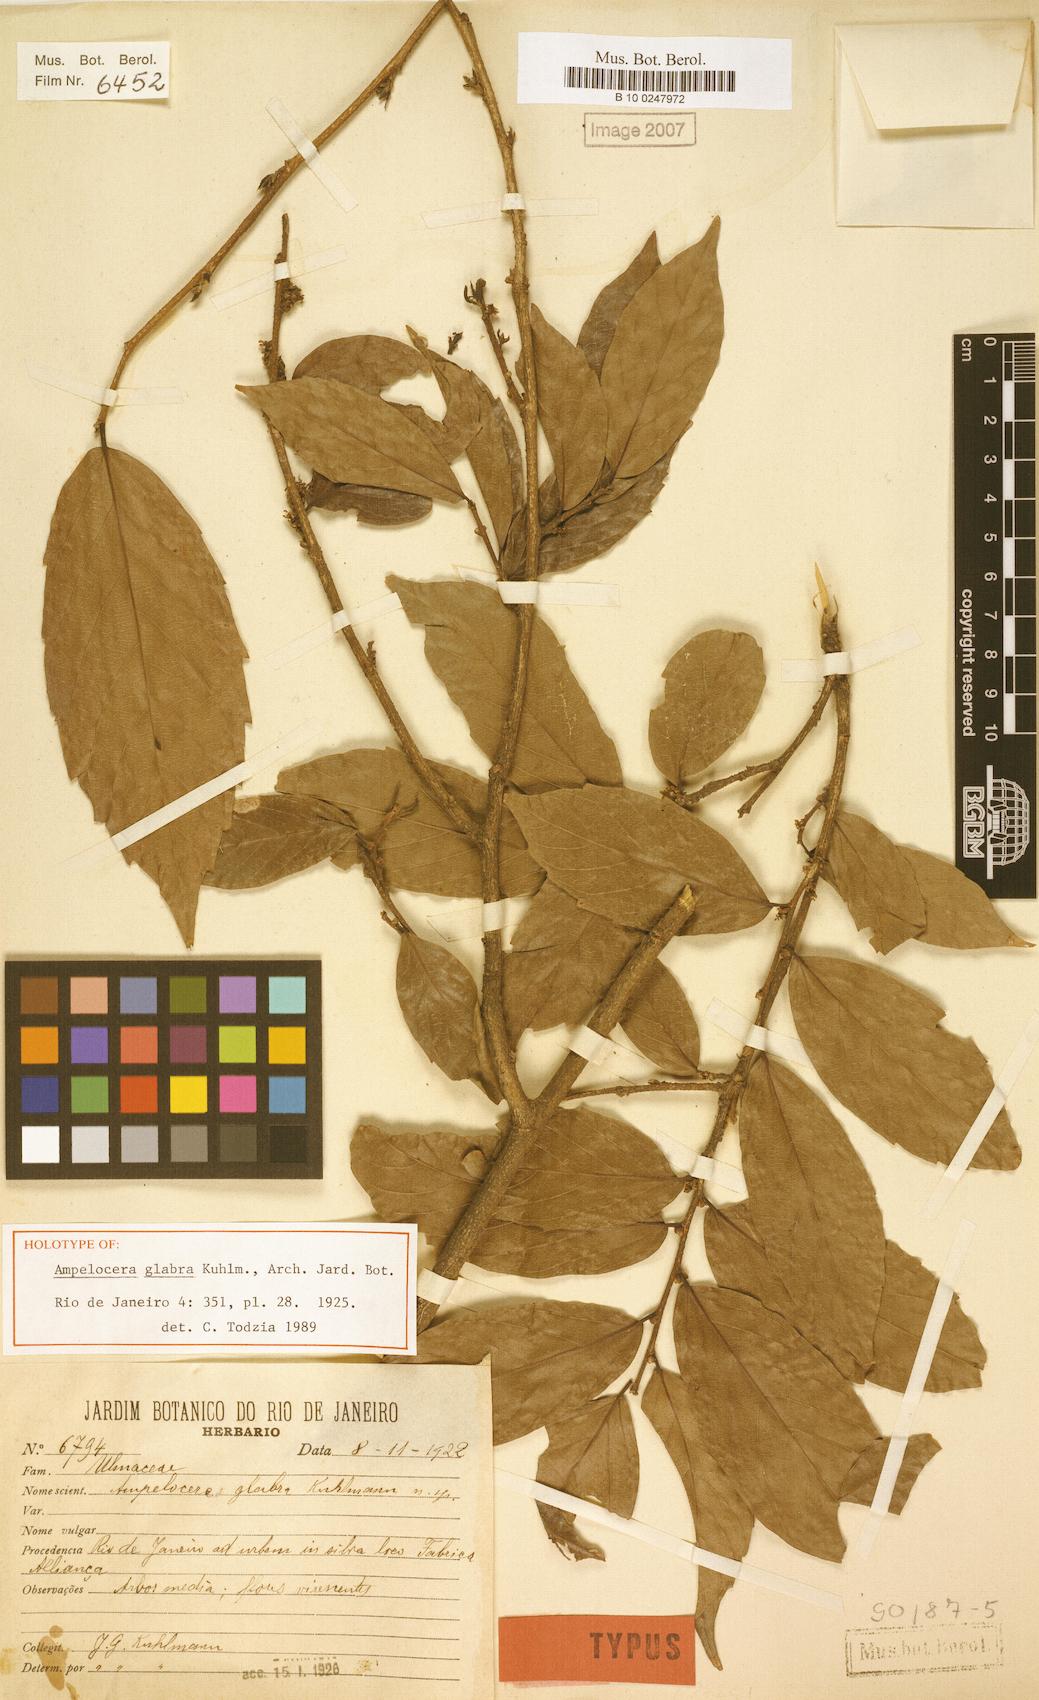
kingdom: Plantae
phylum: Tracheophyta
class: Magnoliopsida
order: Rosales
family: Cannabaceae
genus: Ampelocera
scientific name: Ampelocera glabra
